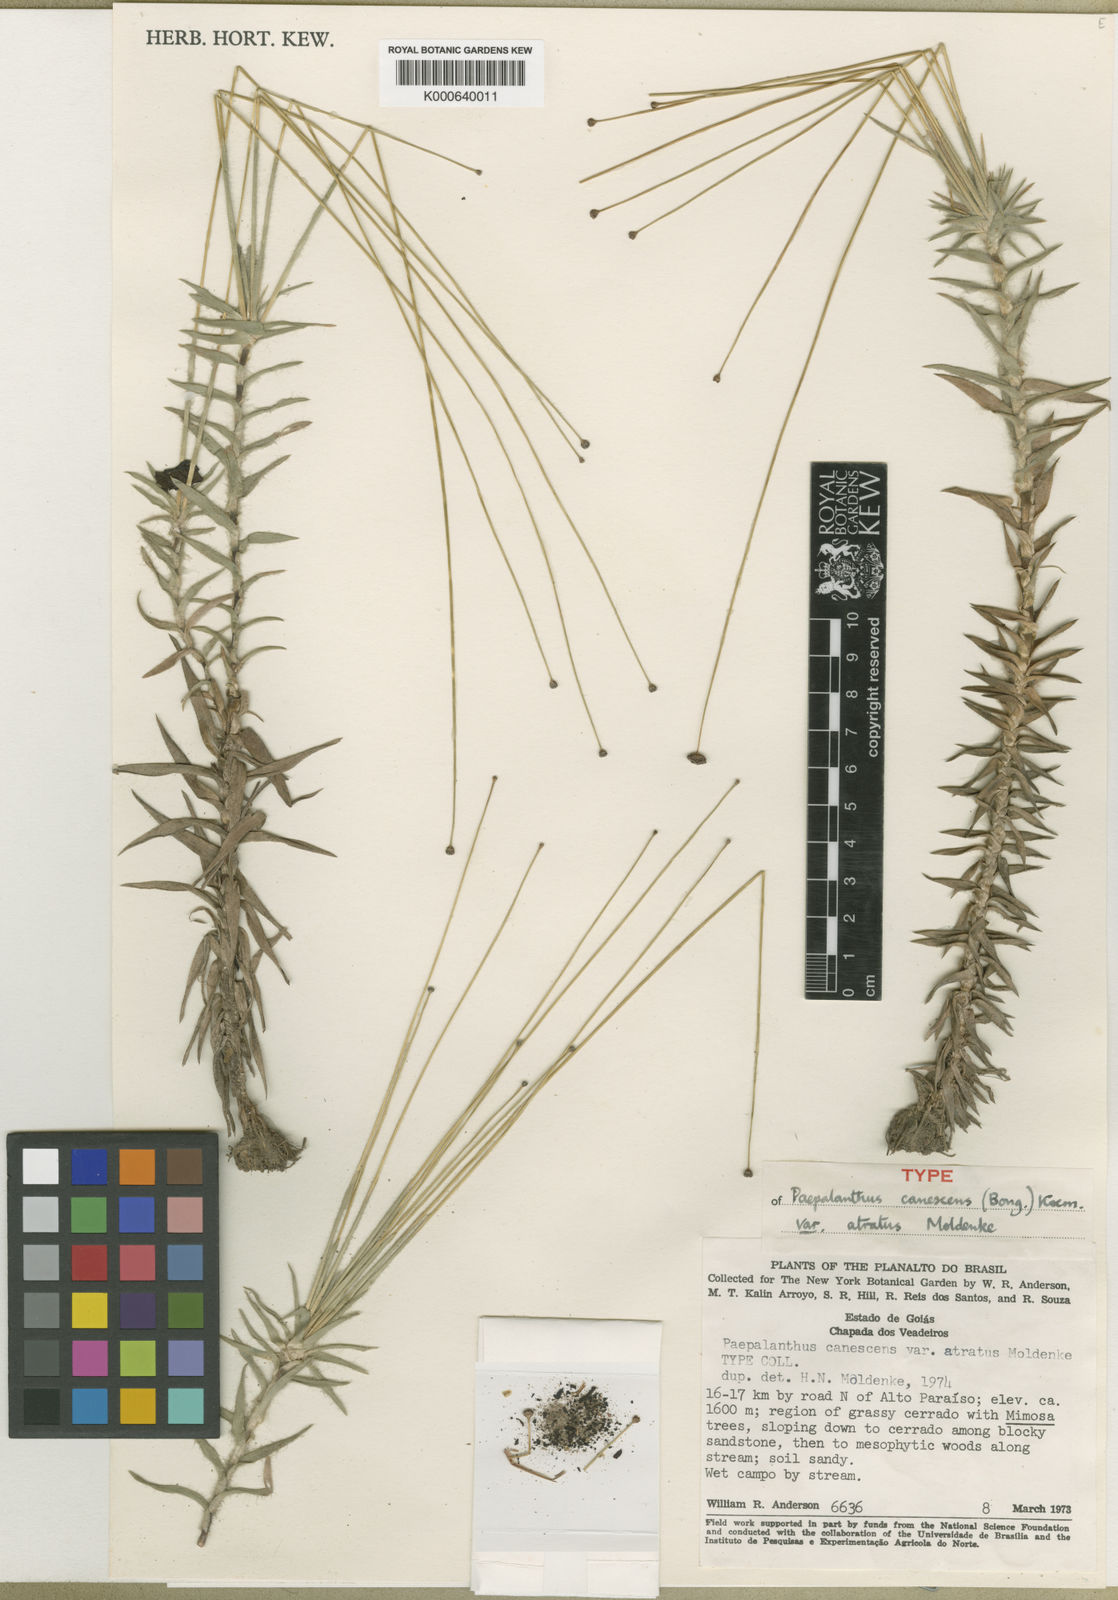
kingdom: Plantae
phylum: Tracheophyta
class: Liliopsida
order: Poales
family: Eriocaulaceae
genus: Paepalanthus
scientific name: Paepalanthus
